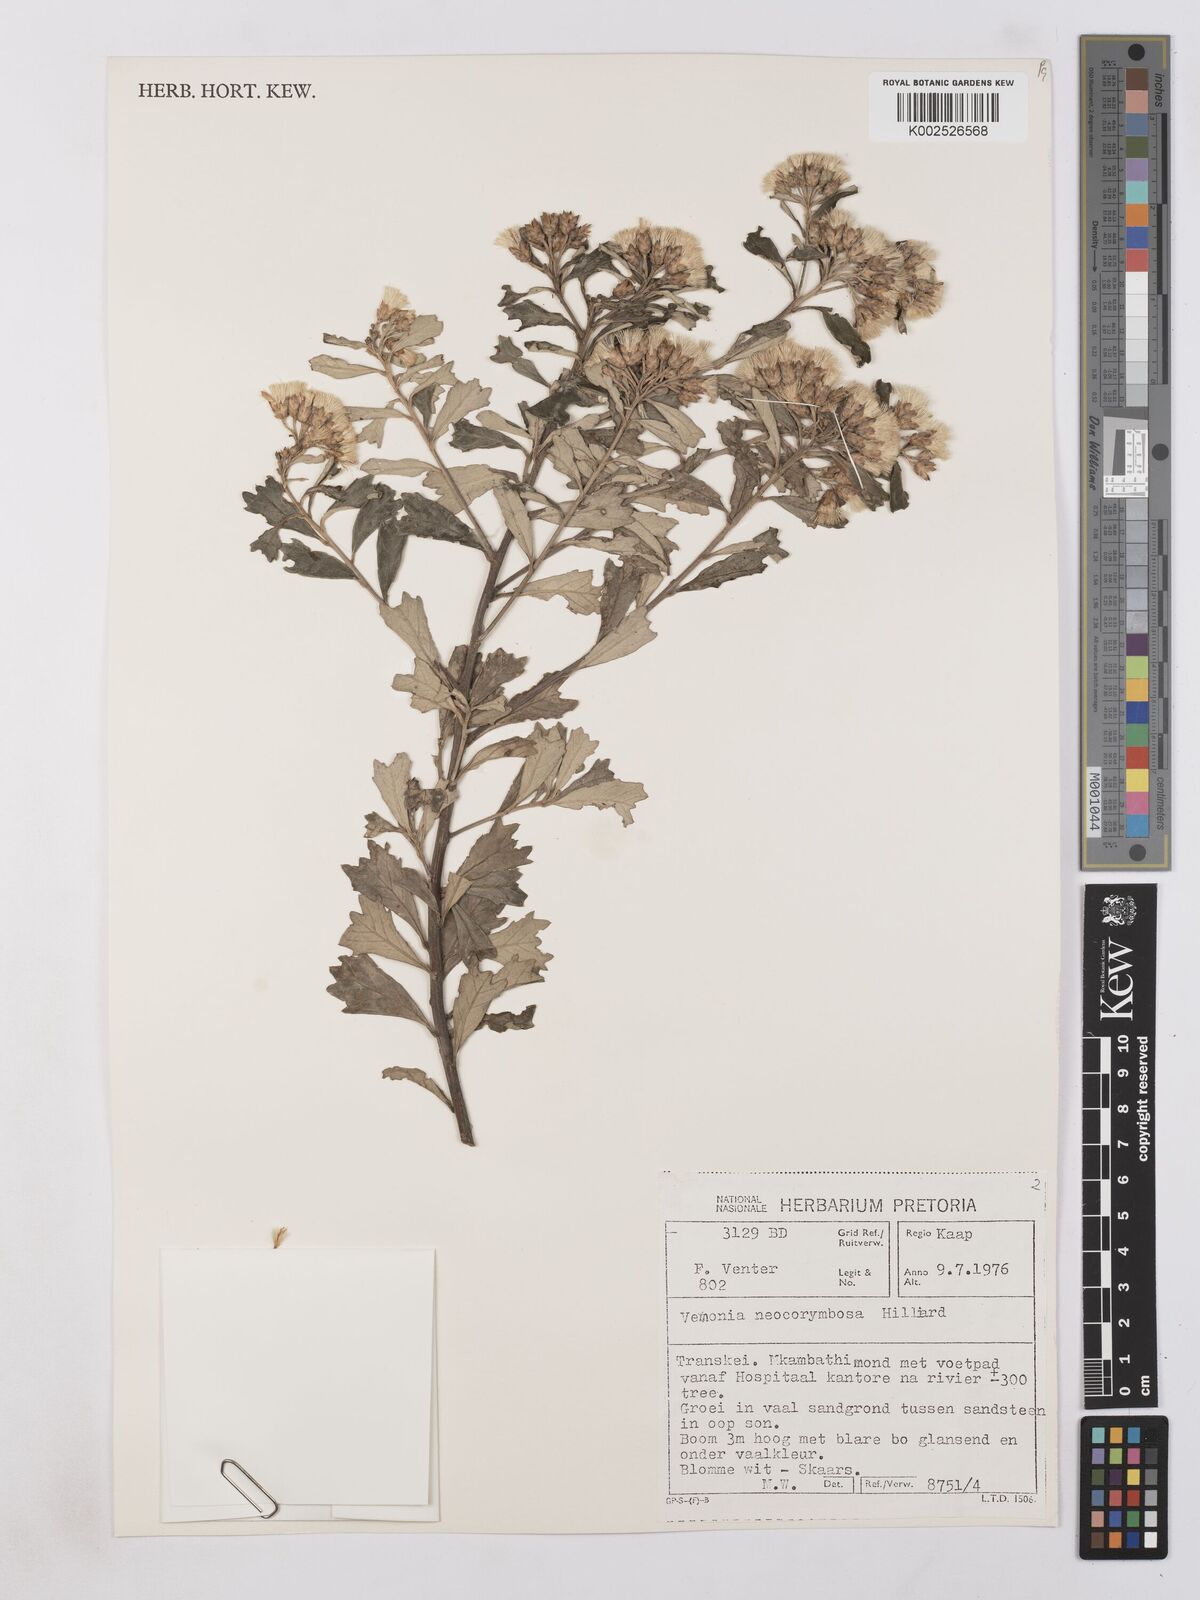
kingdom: Plantae
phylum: Tracheophyta
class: Magnoliopsida
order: Asterales
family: Asteraceae
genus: Gymnanthemum
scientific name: Gymnanthemum corymbosum
